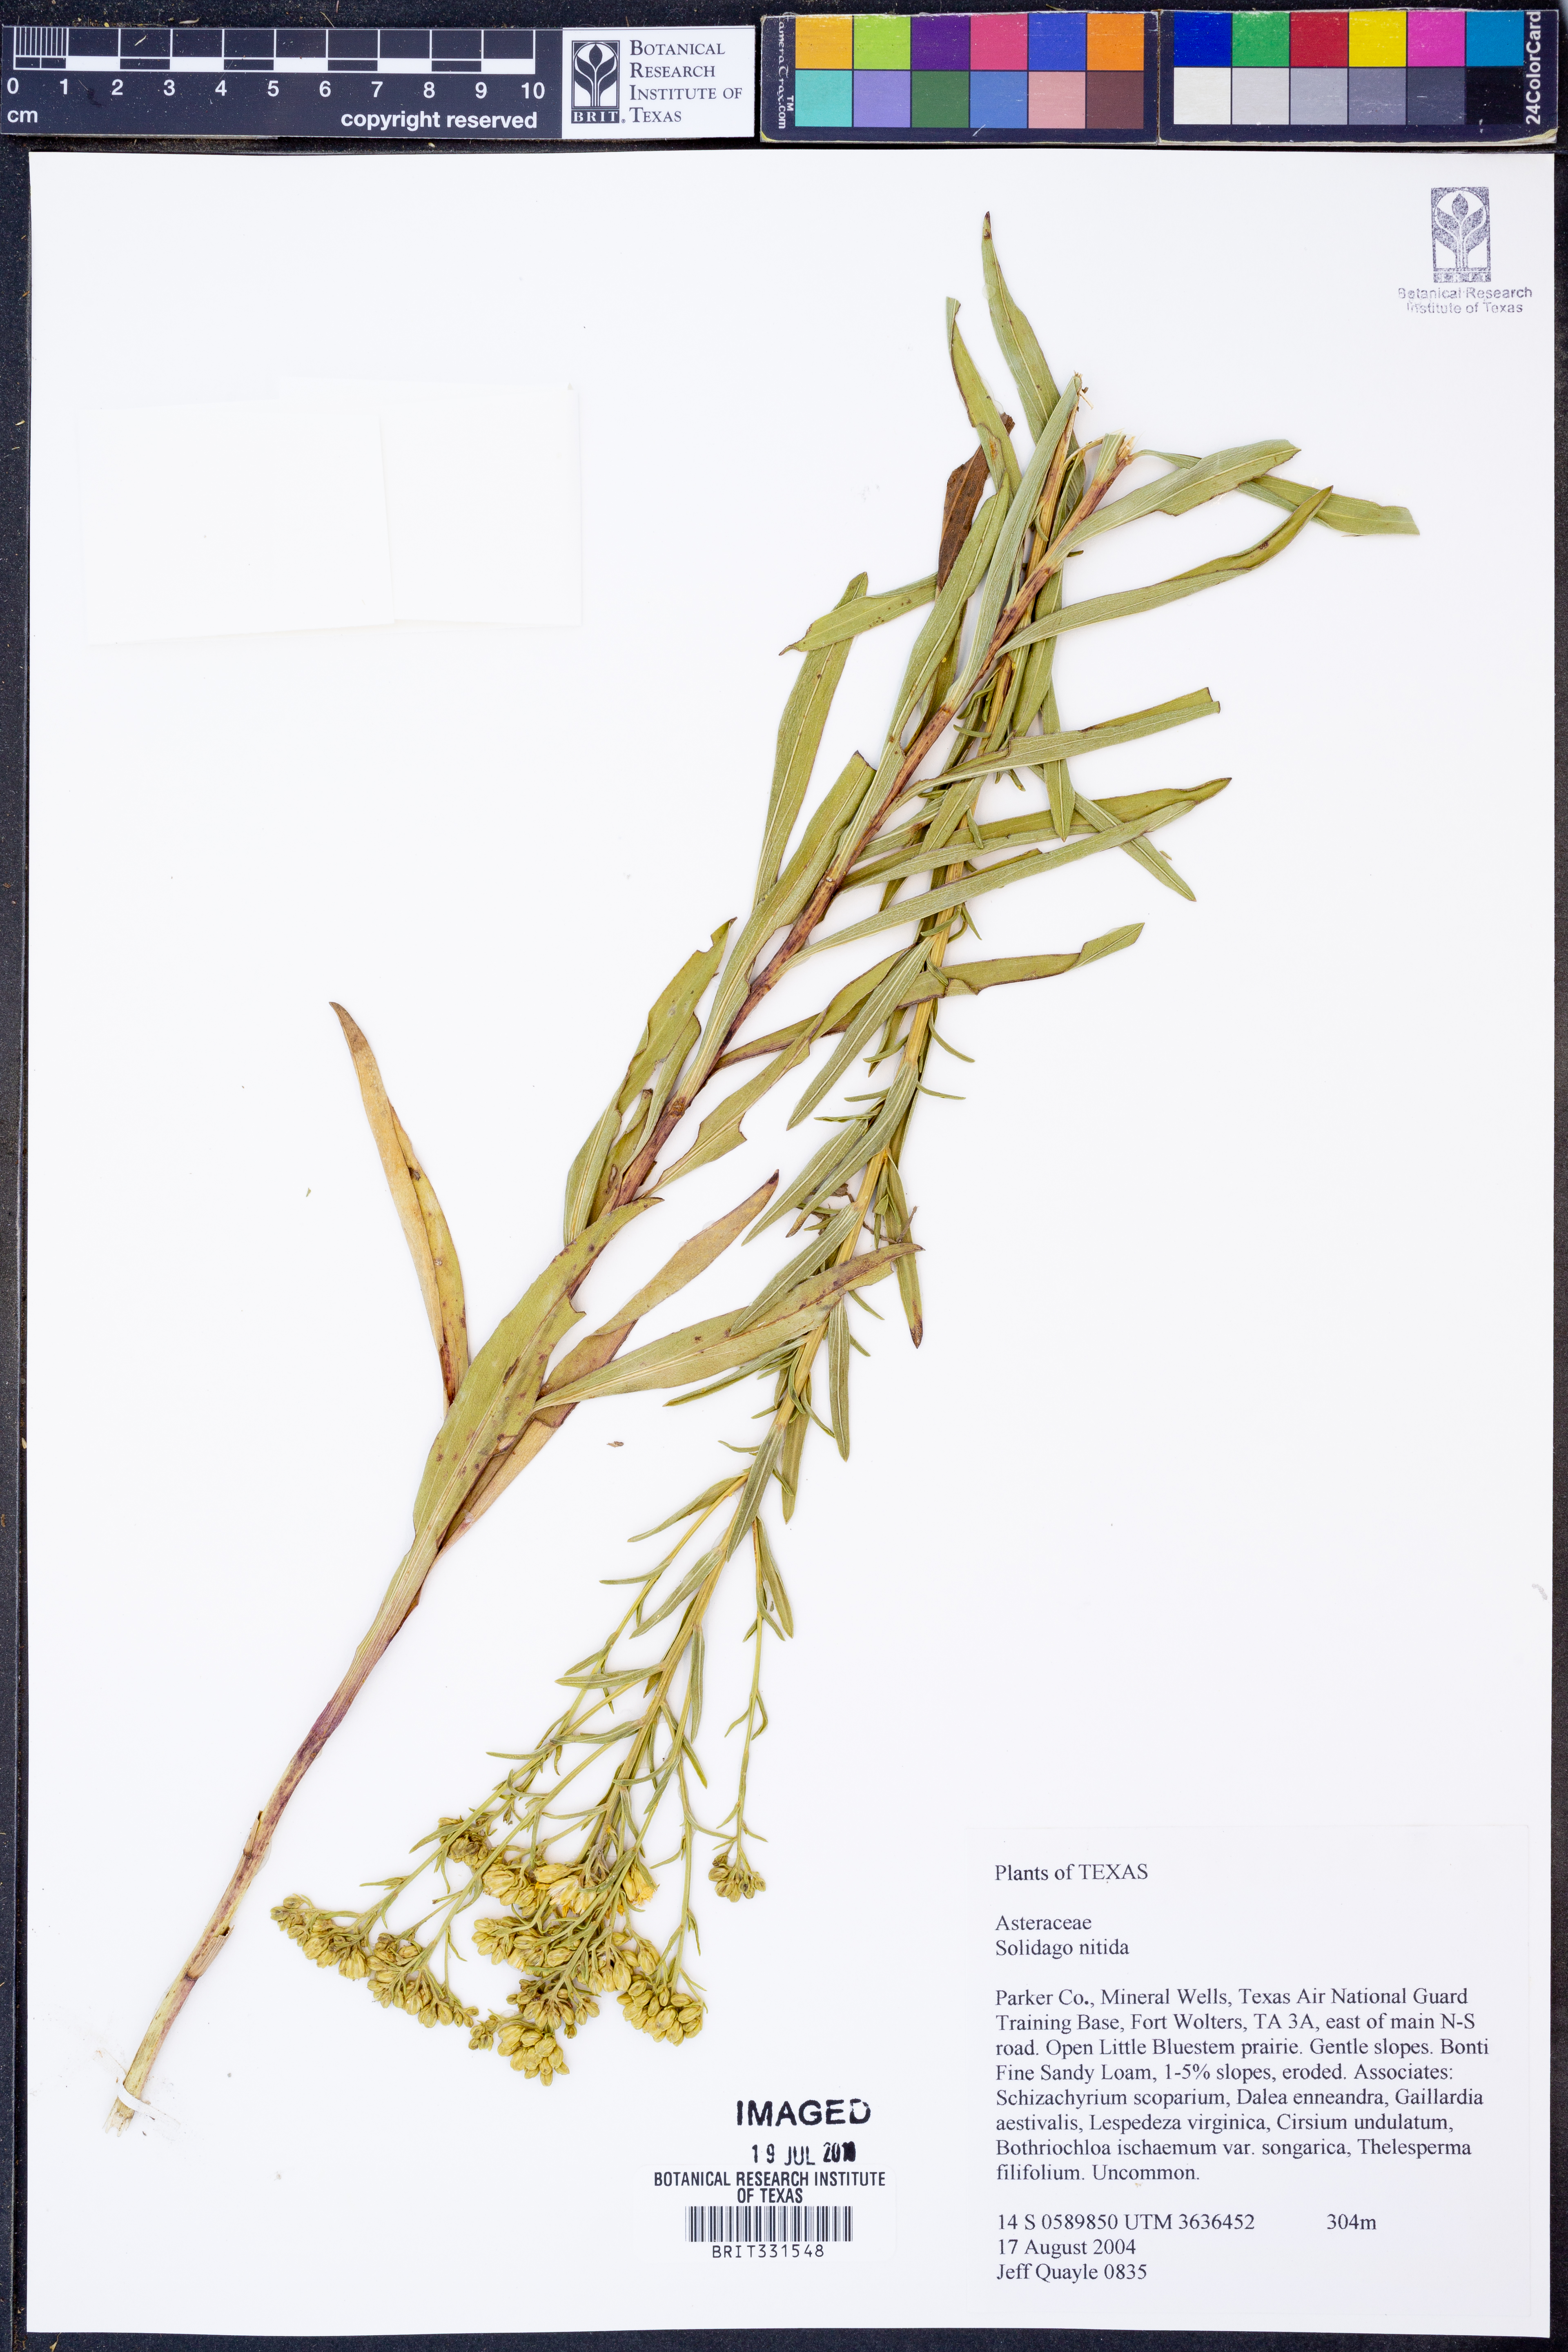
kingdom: Plantae
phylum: Tracheophyta
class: Magnoliopsida
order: Asterales
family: Asteraceae
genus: Solidago
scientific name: Solidago nitida
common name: Shiny goldenrod
